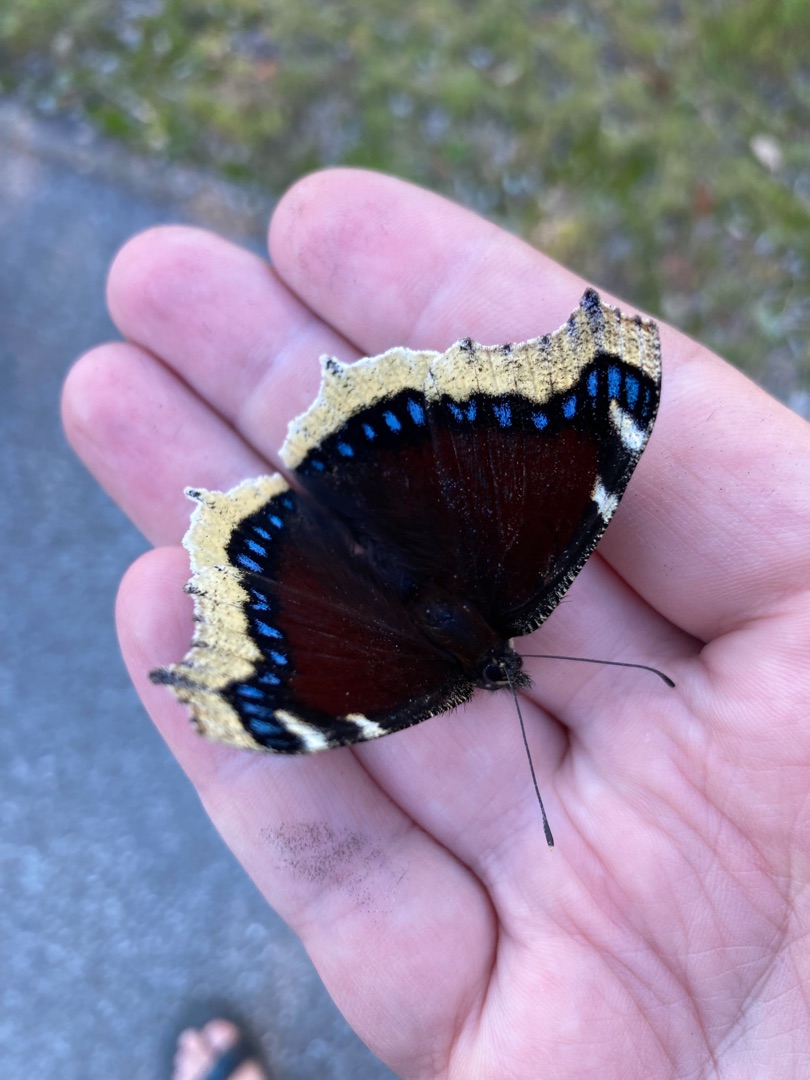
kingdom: Animalia
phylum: Arthropoda
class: Insecta
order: Lepidoptera
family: Nymphalidae
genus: Nymphalis
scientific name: Nymphalis antiopa
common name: Sørgekåbe
